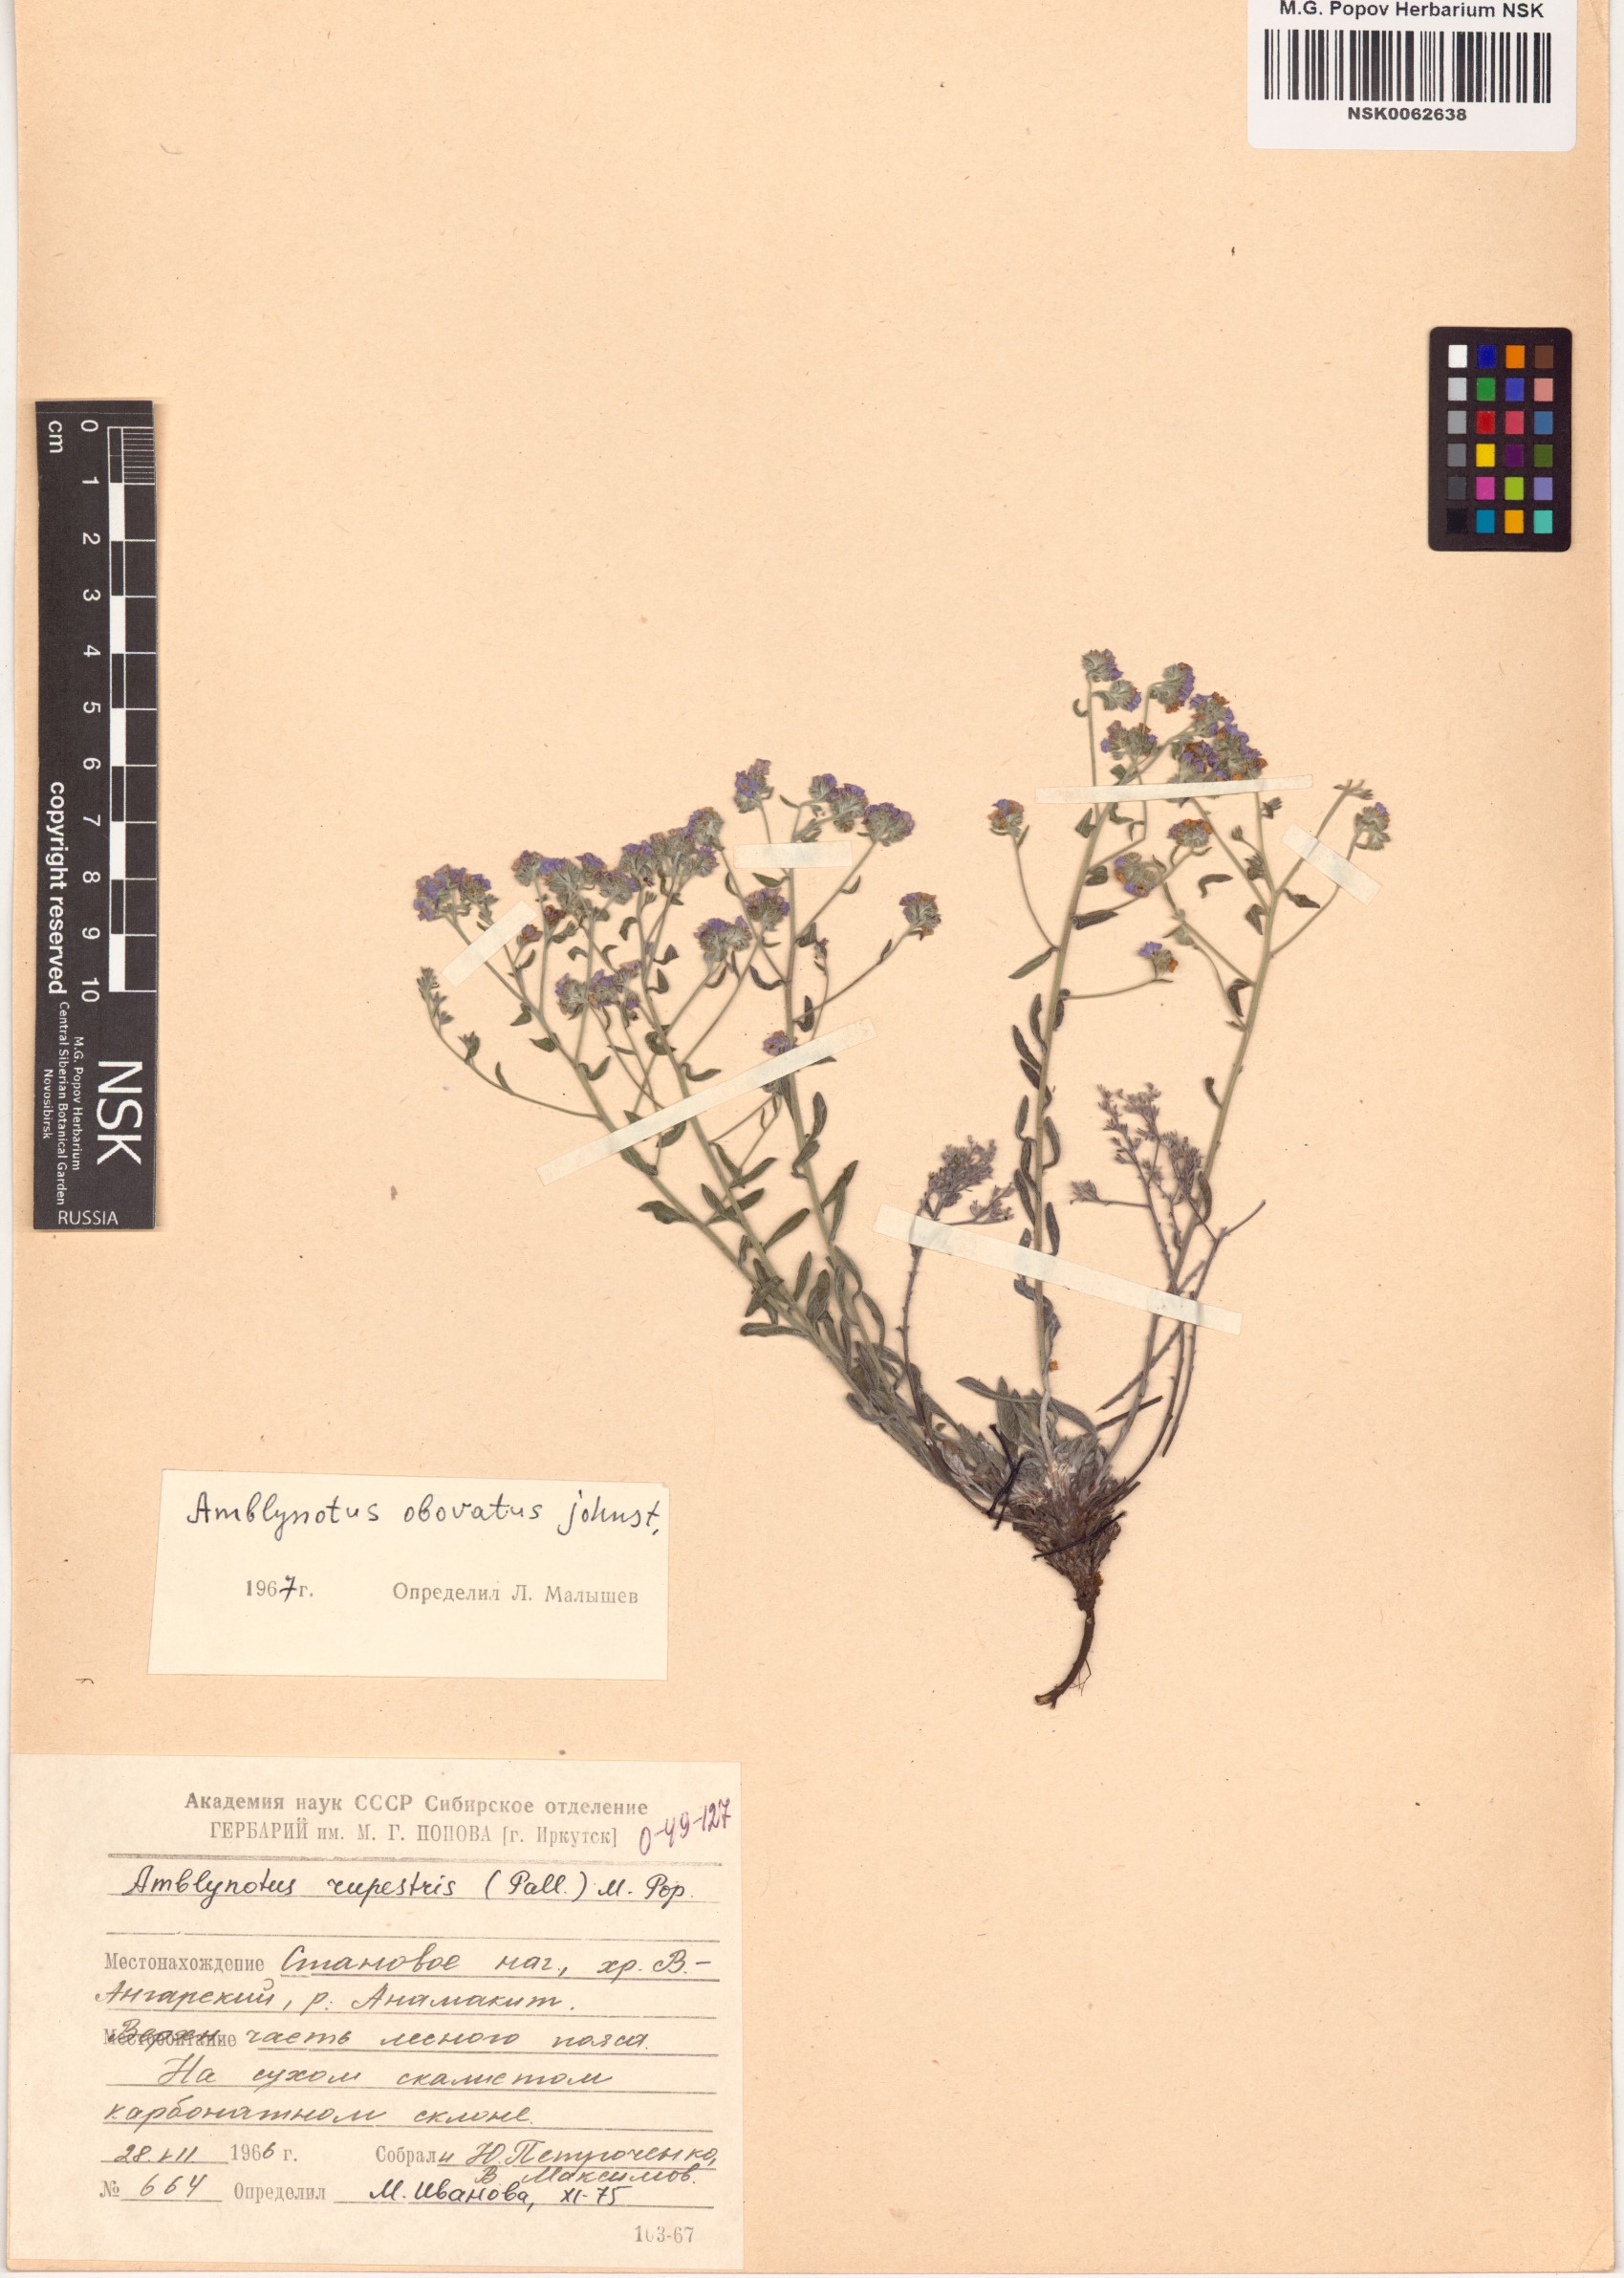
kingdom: Plantae
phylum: Tracheophyta
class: Magnoliopsida
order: Boraginales
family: Boraginaceae
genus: Eritrichium
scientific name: Eritrichium rupestre
